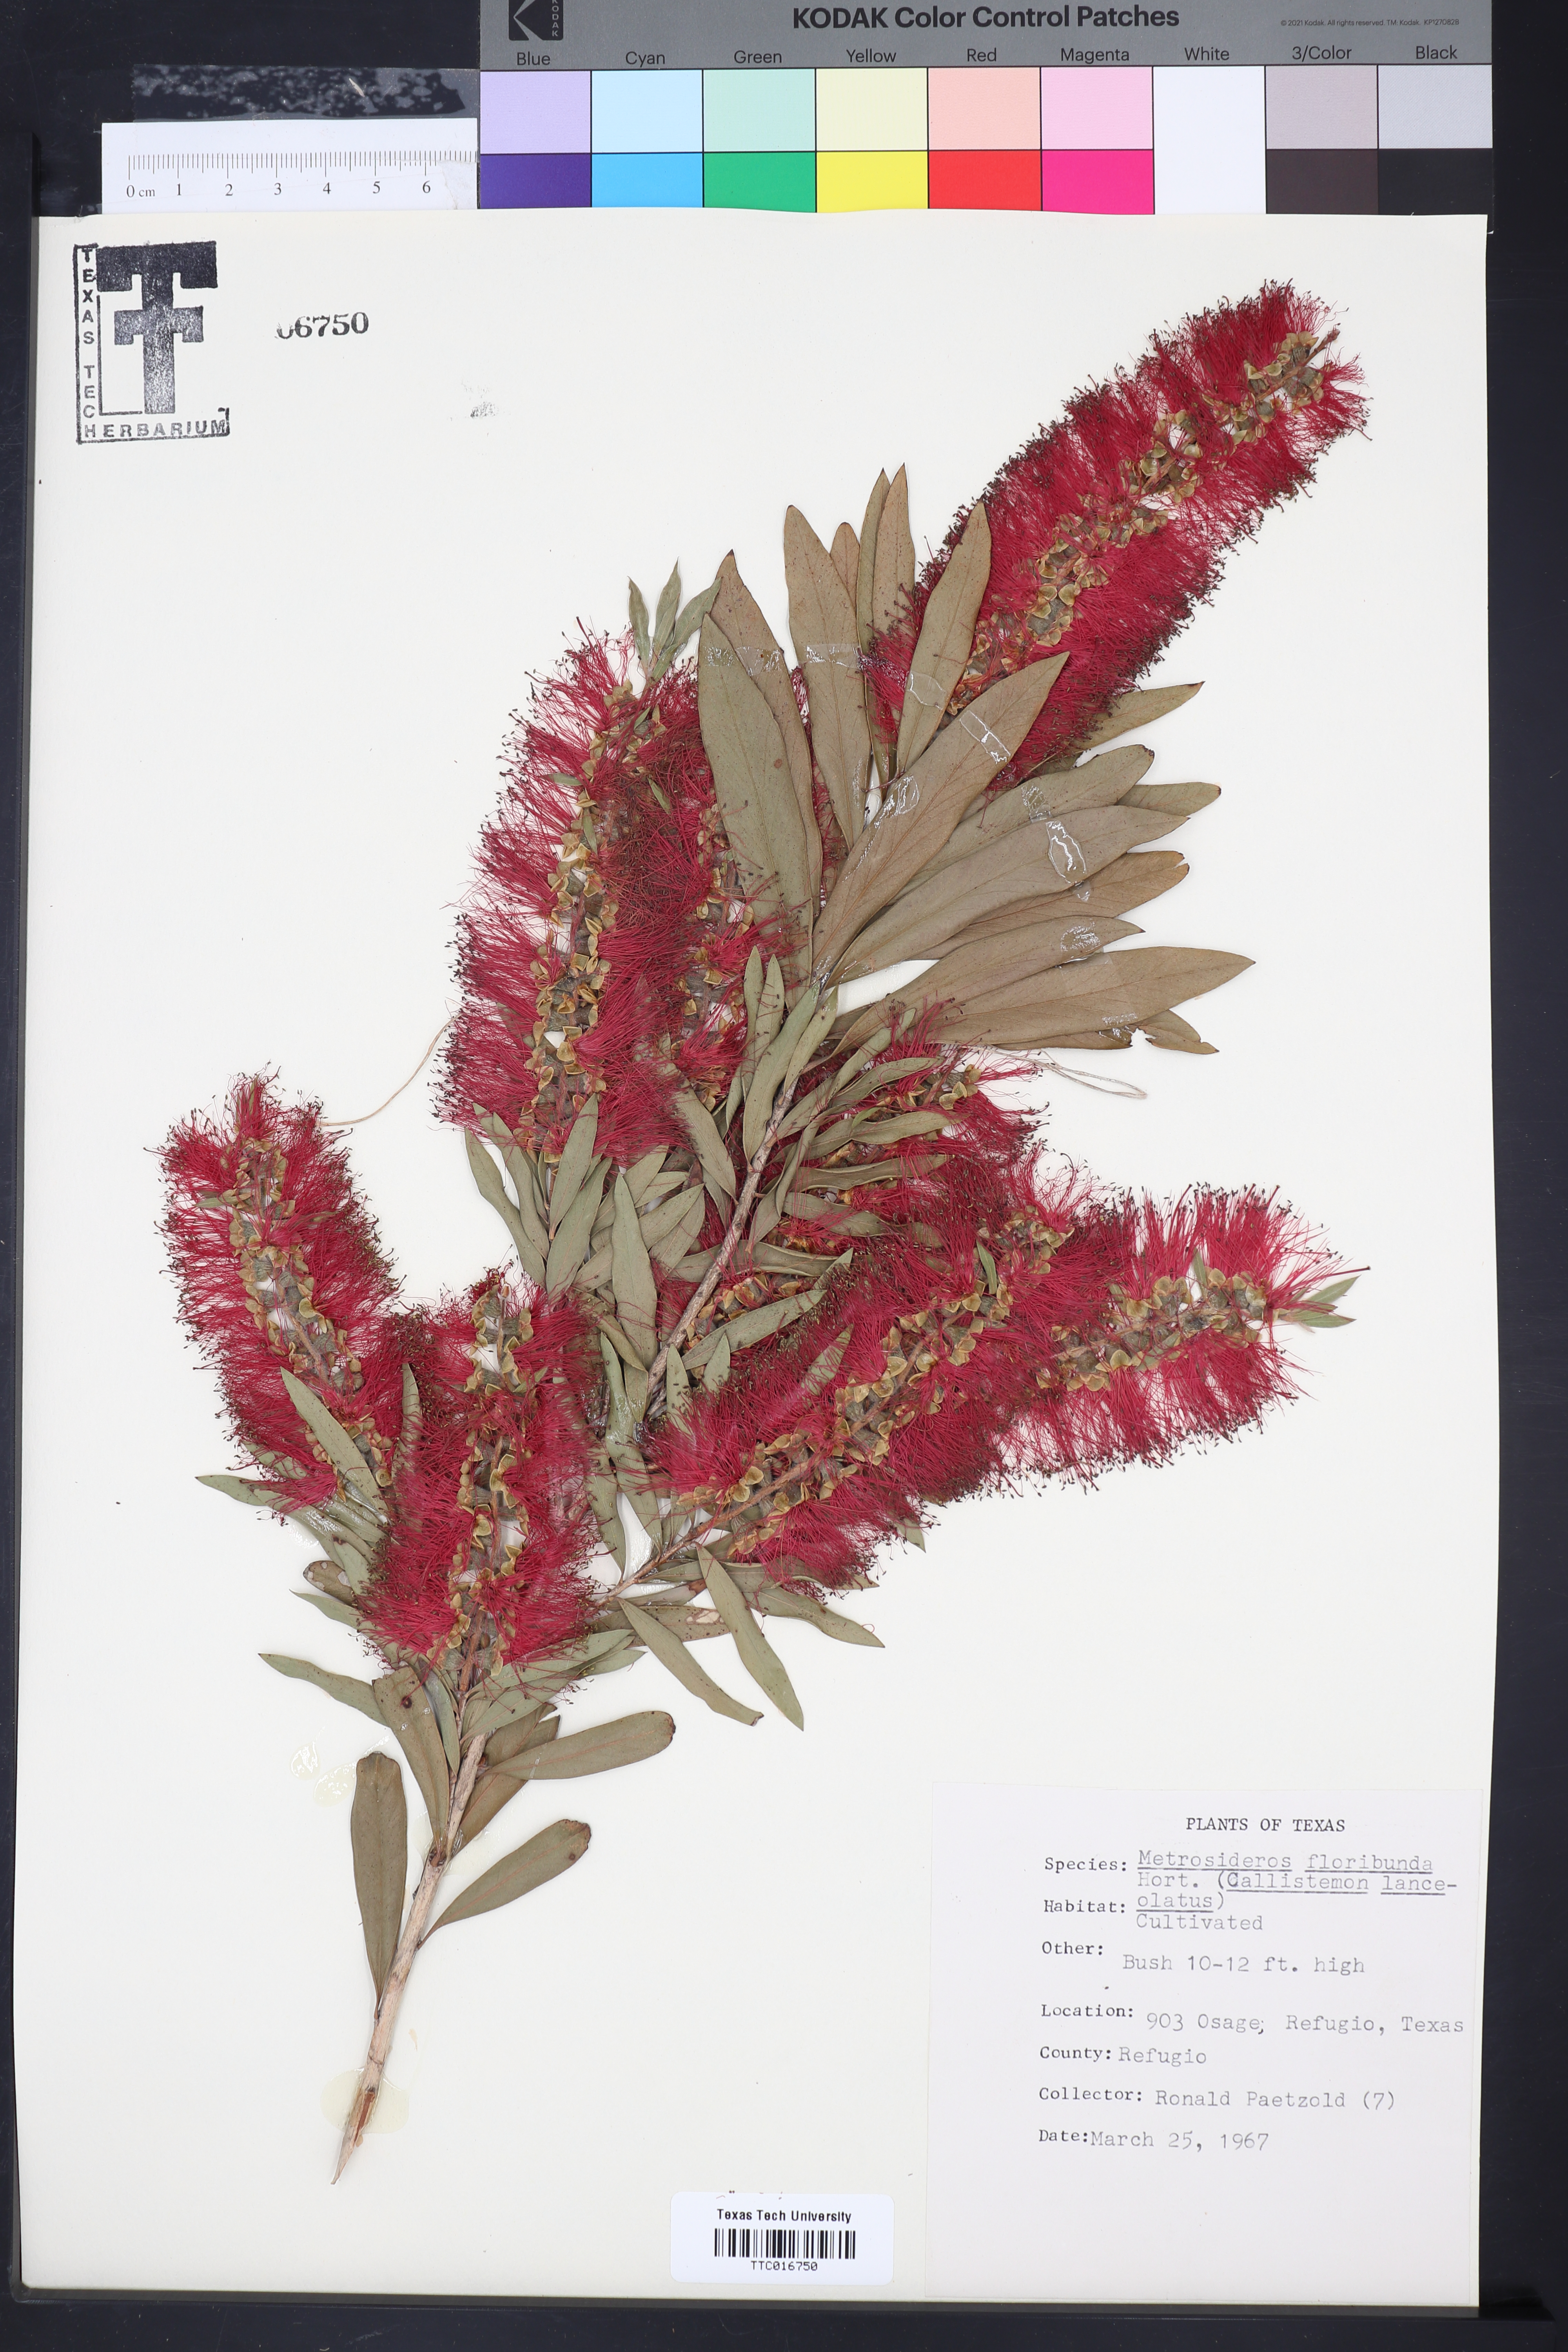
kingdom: Plantae
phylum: Tracheophyta
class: Magnoliopsida
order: Myrtales
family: Myrtaceae
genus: Angophora
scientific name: Angophora floribunda
